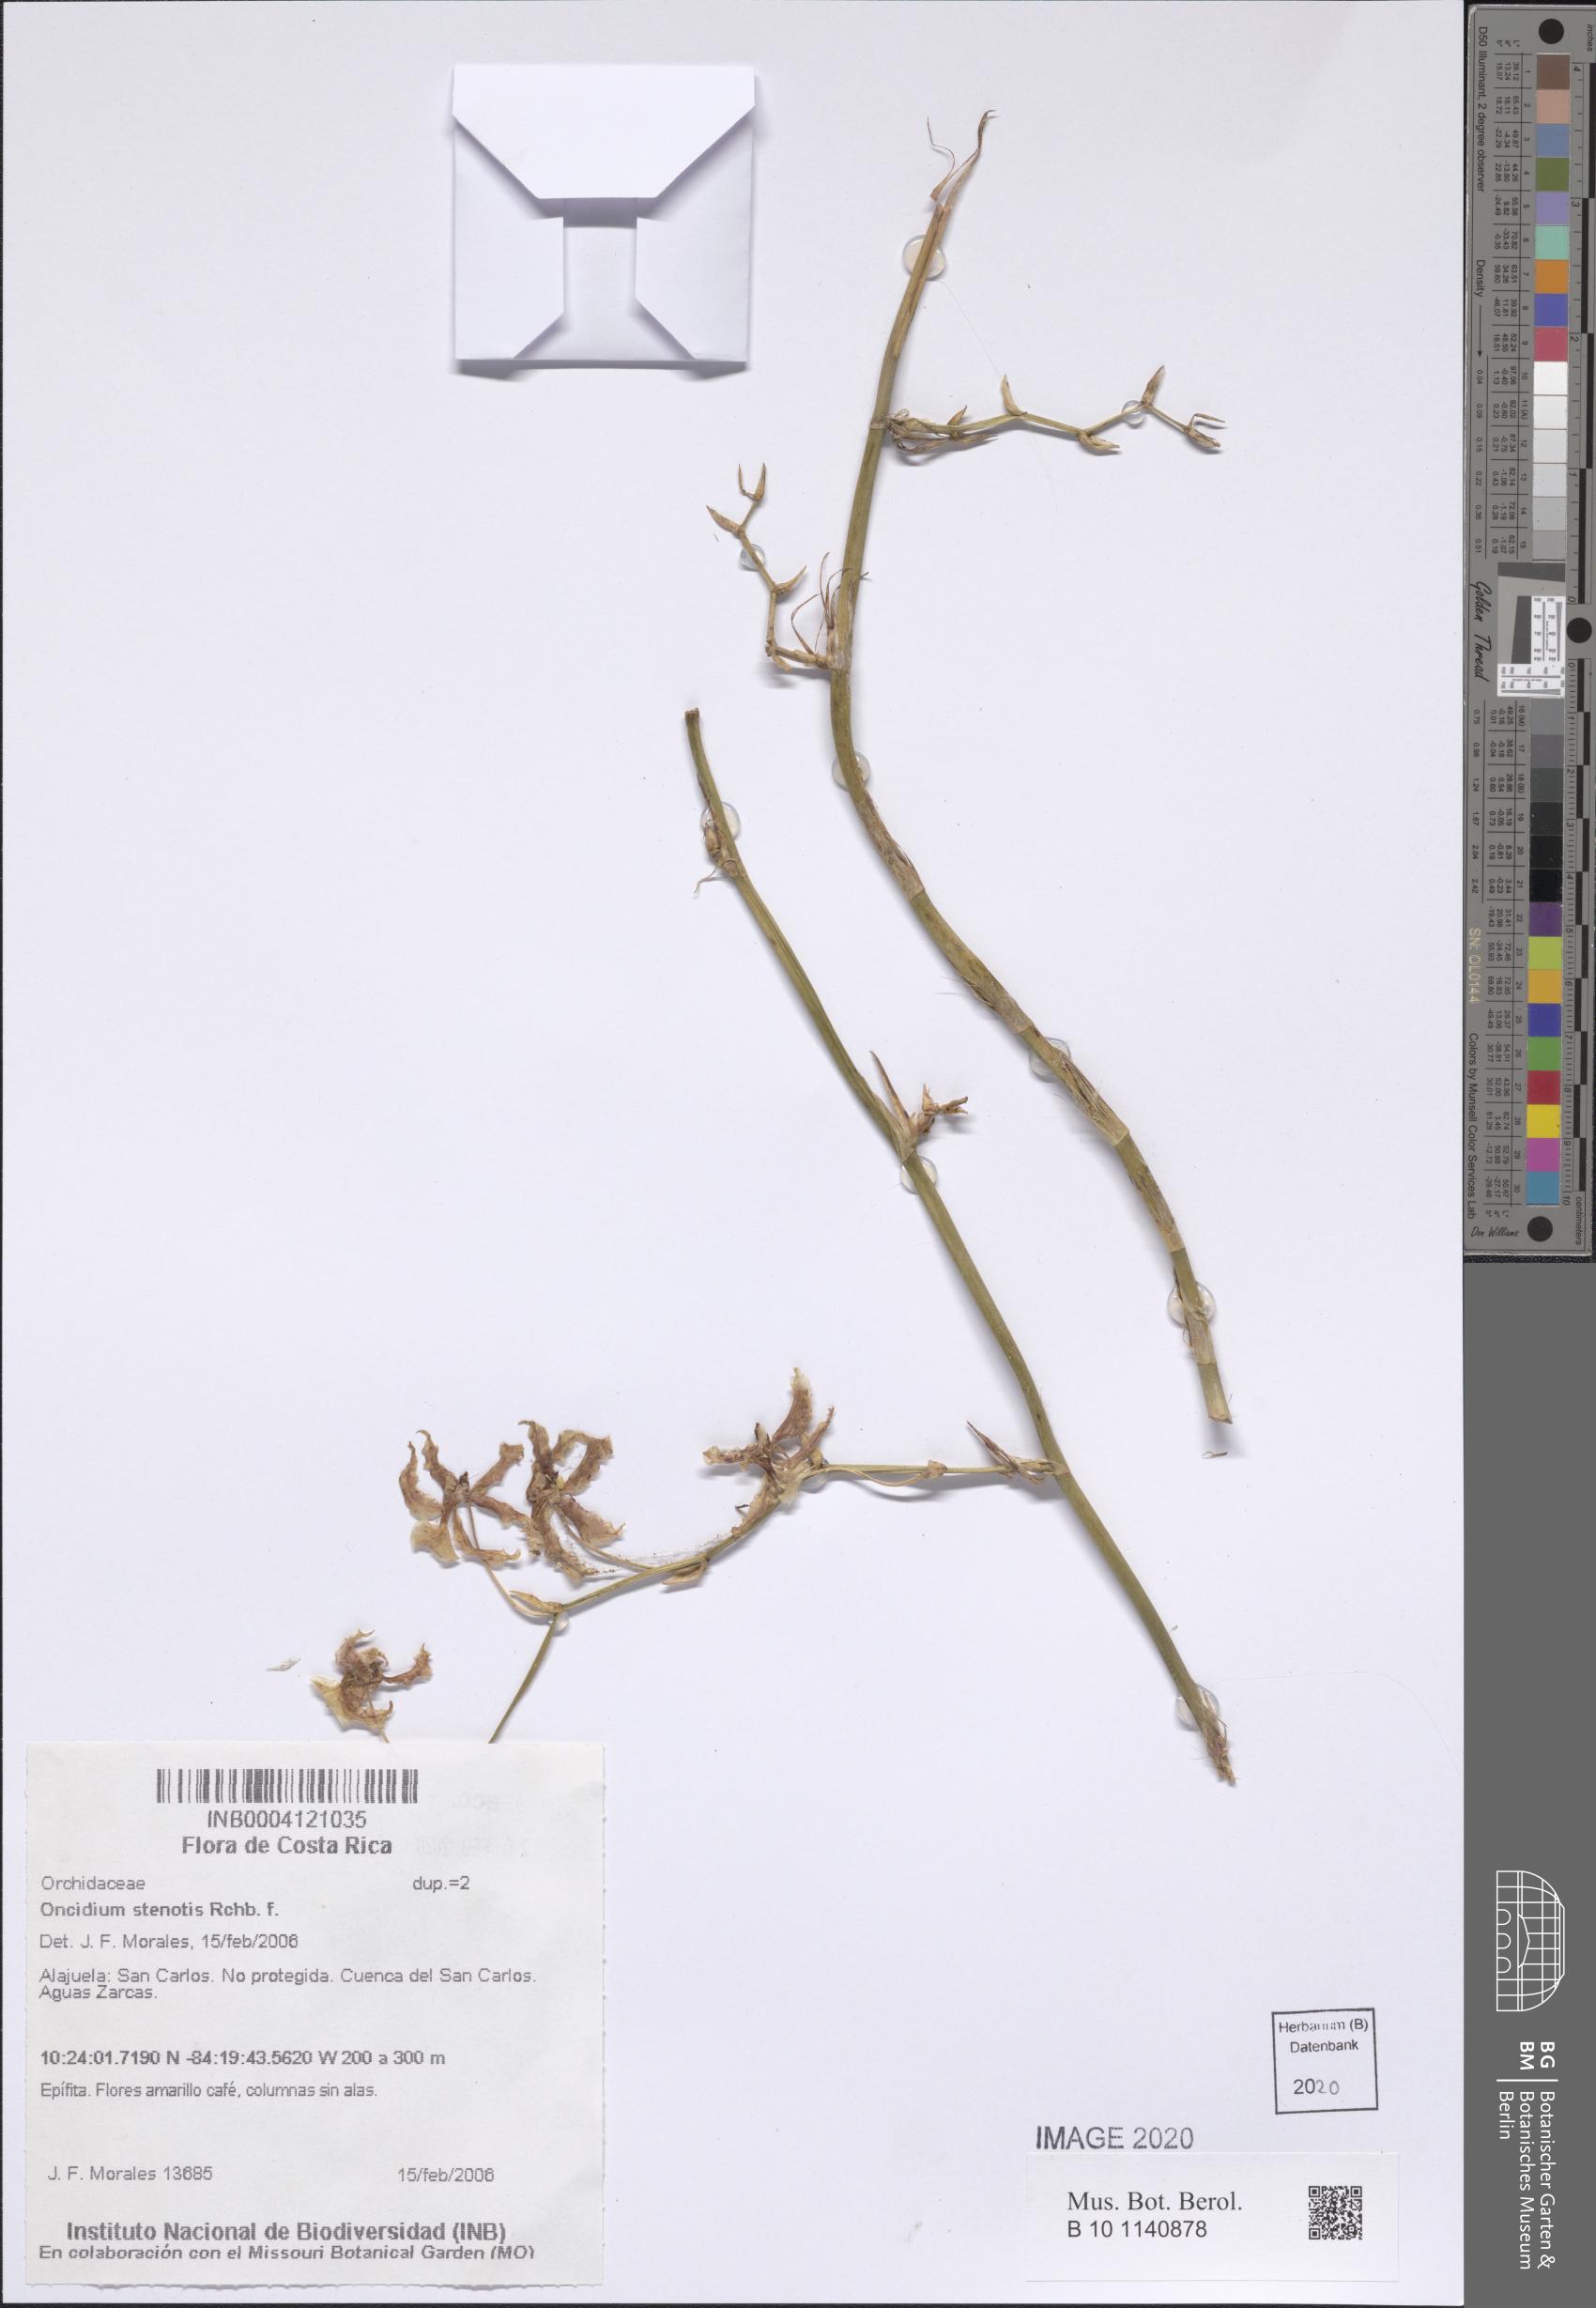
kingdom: Plantae
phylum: Tracheophyta
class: Liliopsida
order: Asparagales
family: Orchidaceae
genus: Oncidium
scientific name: Oncidium lineoligerum
